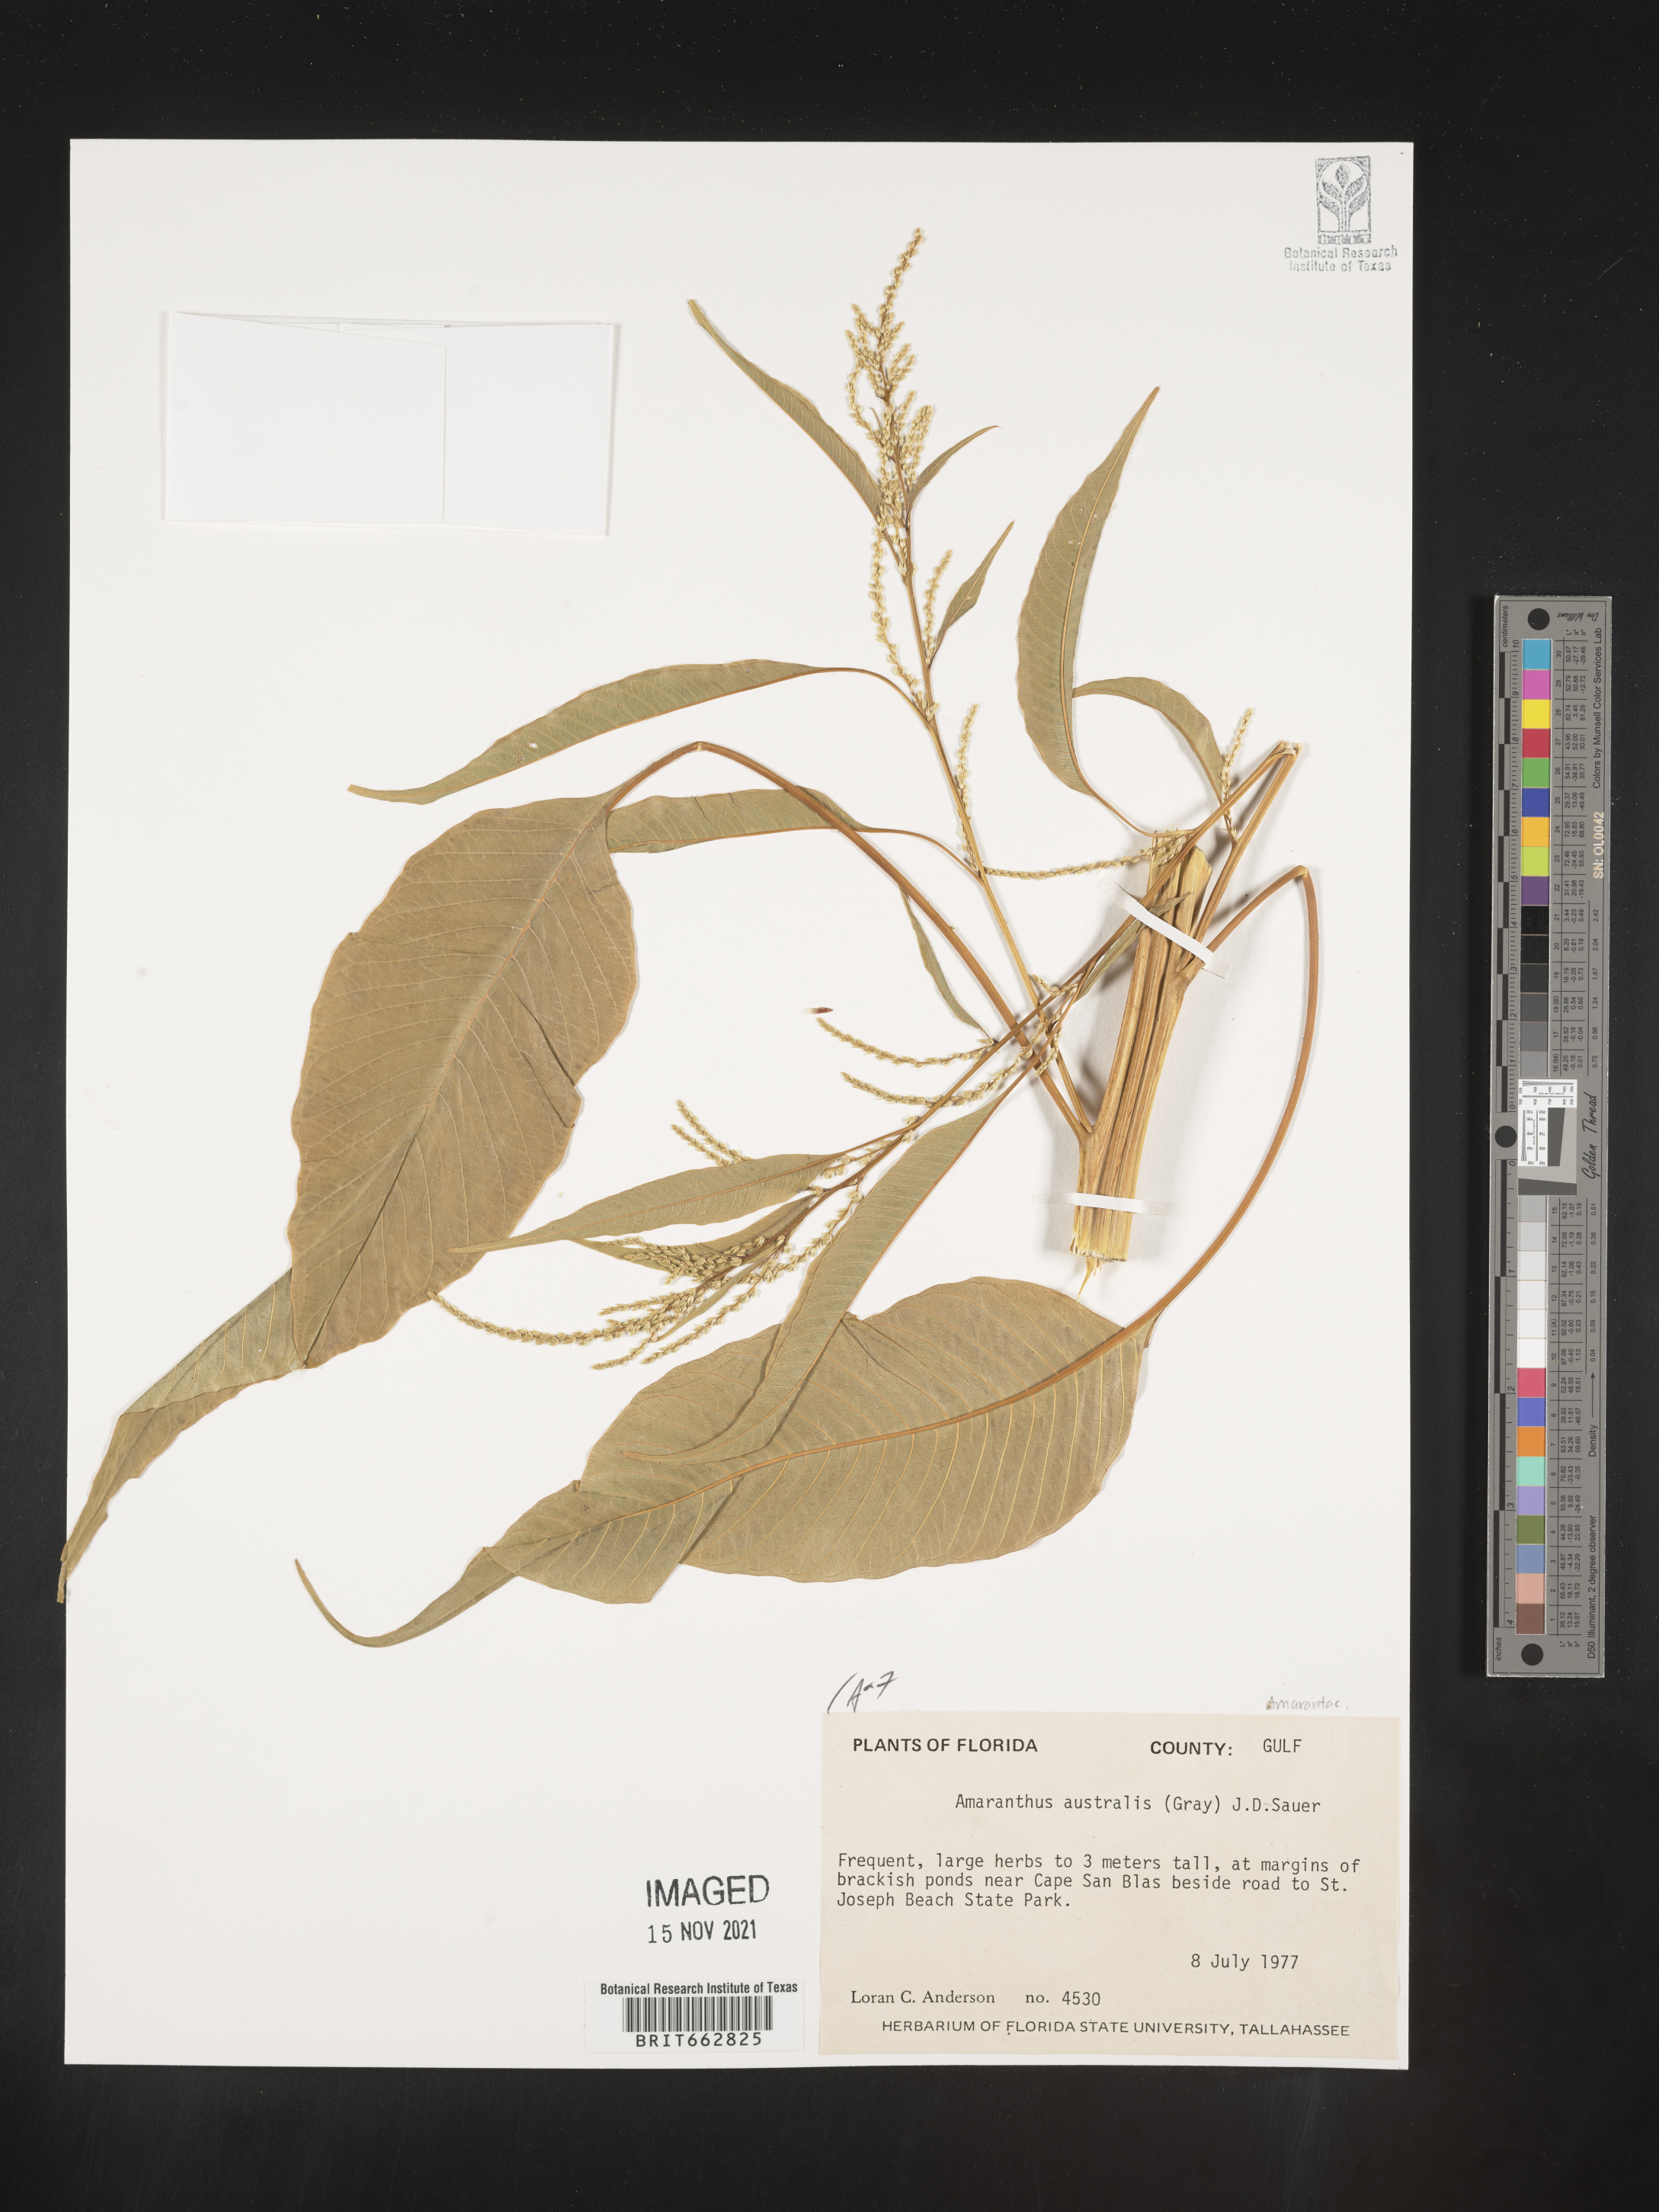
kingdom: Plantae
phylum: Tracheophyta
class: Magnoliopsida
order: Caryophyllales
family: Amaranthaceae
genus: Amaranthus
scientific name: Amaranthus australis
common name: Southern amaranth
